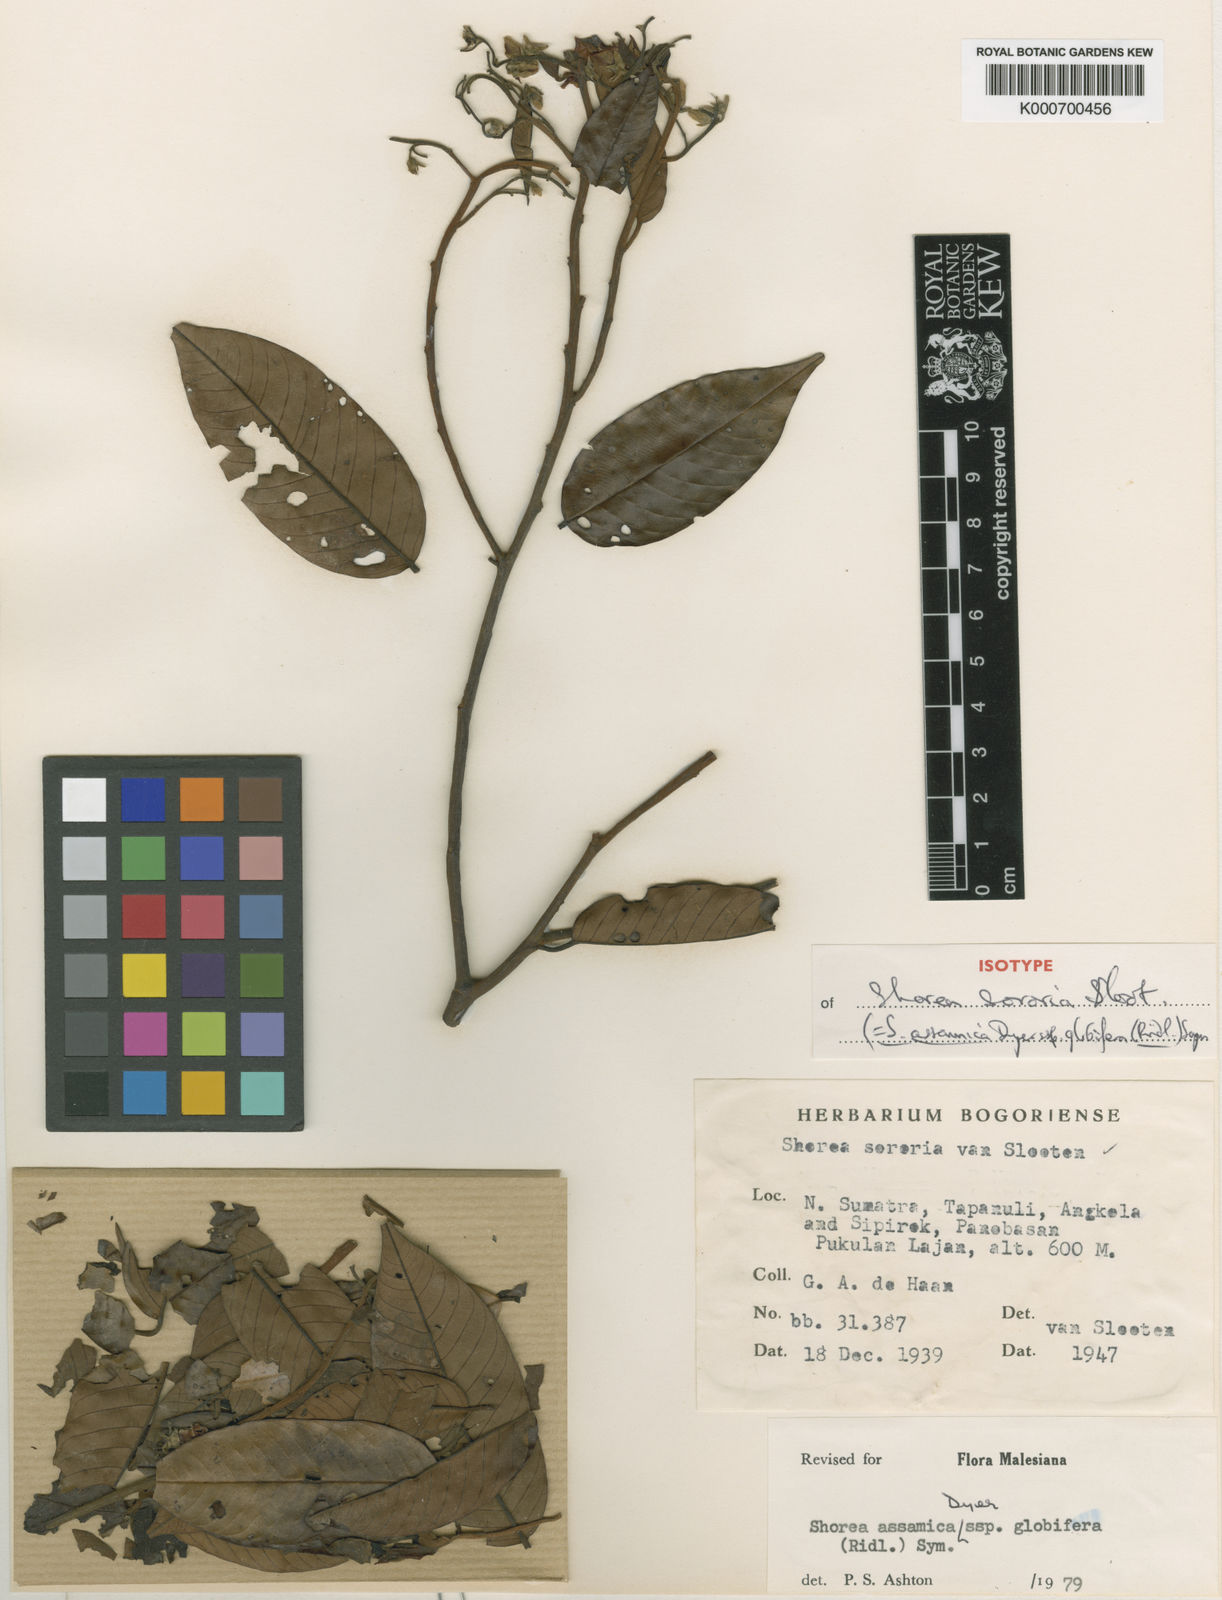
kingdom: Plantae
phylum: Tracheophyta
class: Magnoliopsida
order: Malvales
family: Dipterocarpaceae
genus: Anthoshorea
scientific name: Anthoshorea assamica
